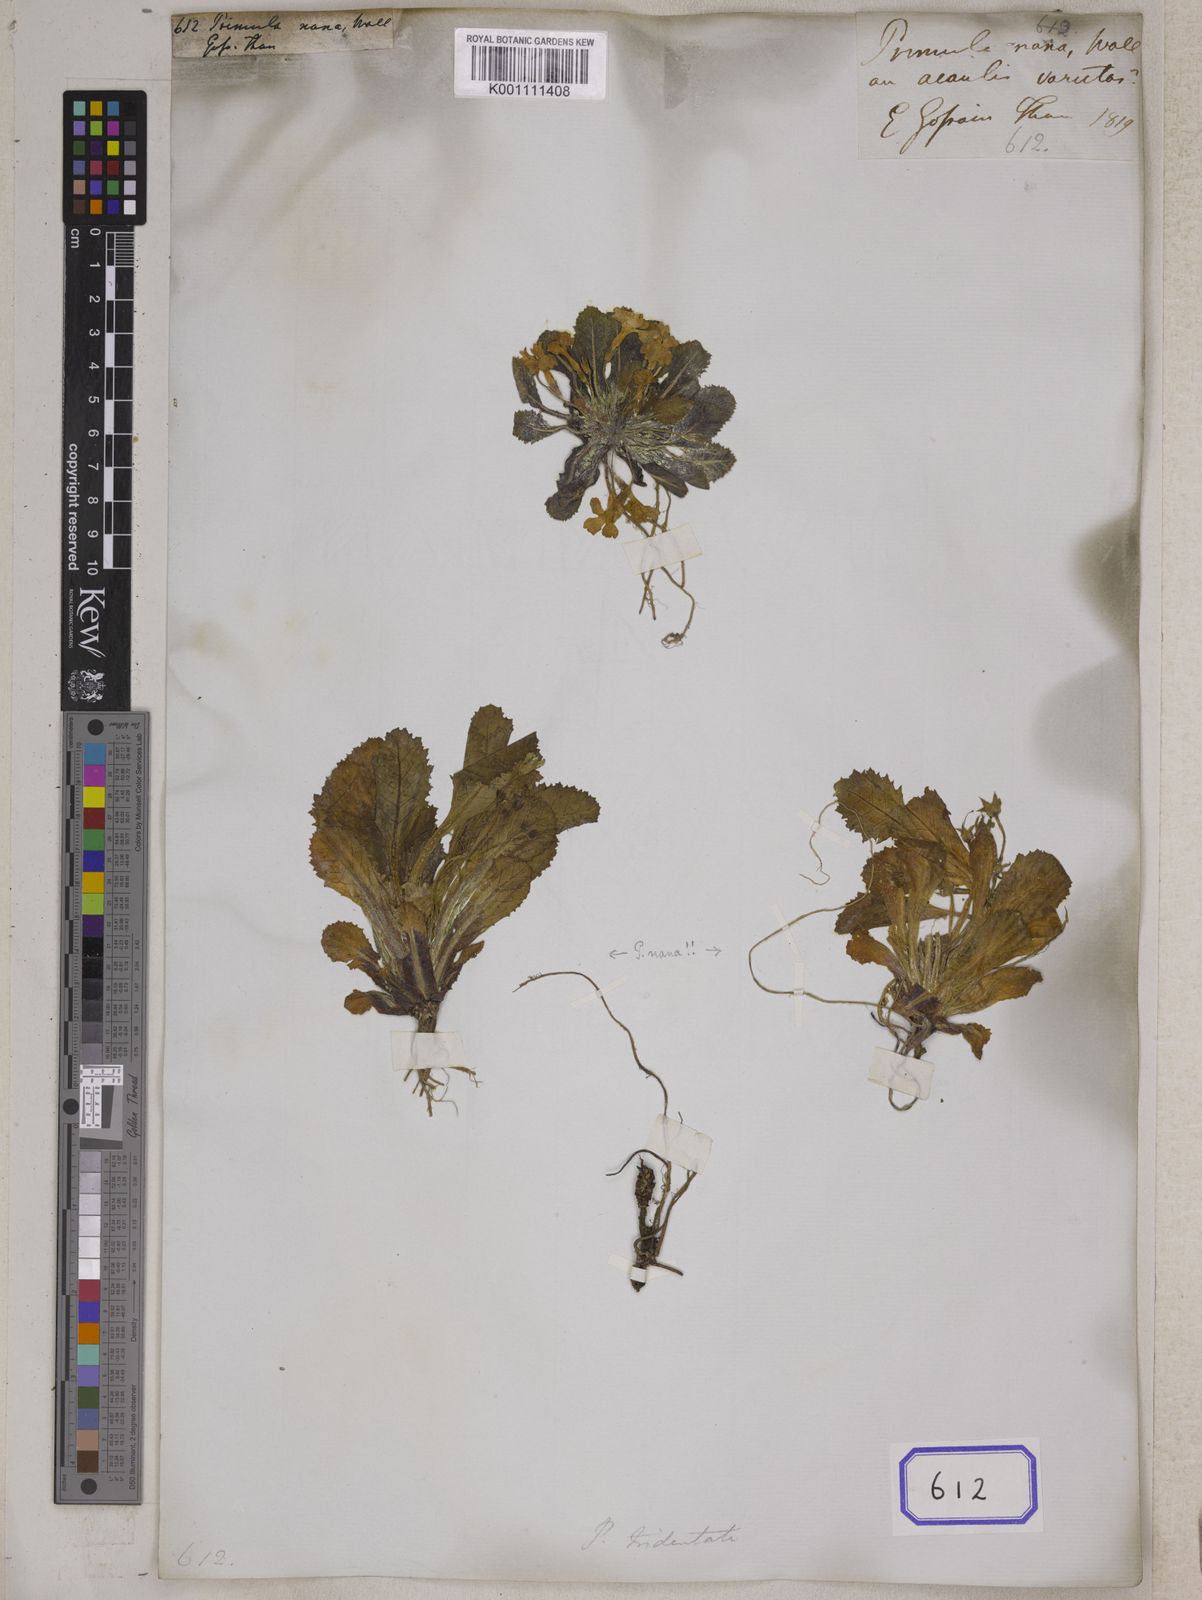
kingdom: Plantae
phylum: Tracheophyta
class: Magnoliopsida
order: Ericales
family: Primulaceae
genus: Primula
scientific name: Primula nana
